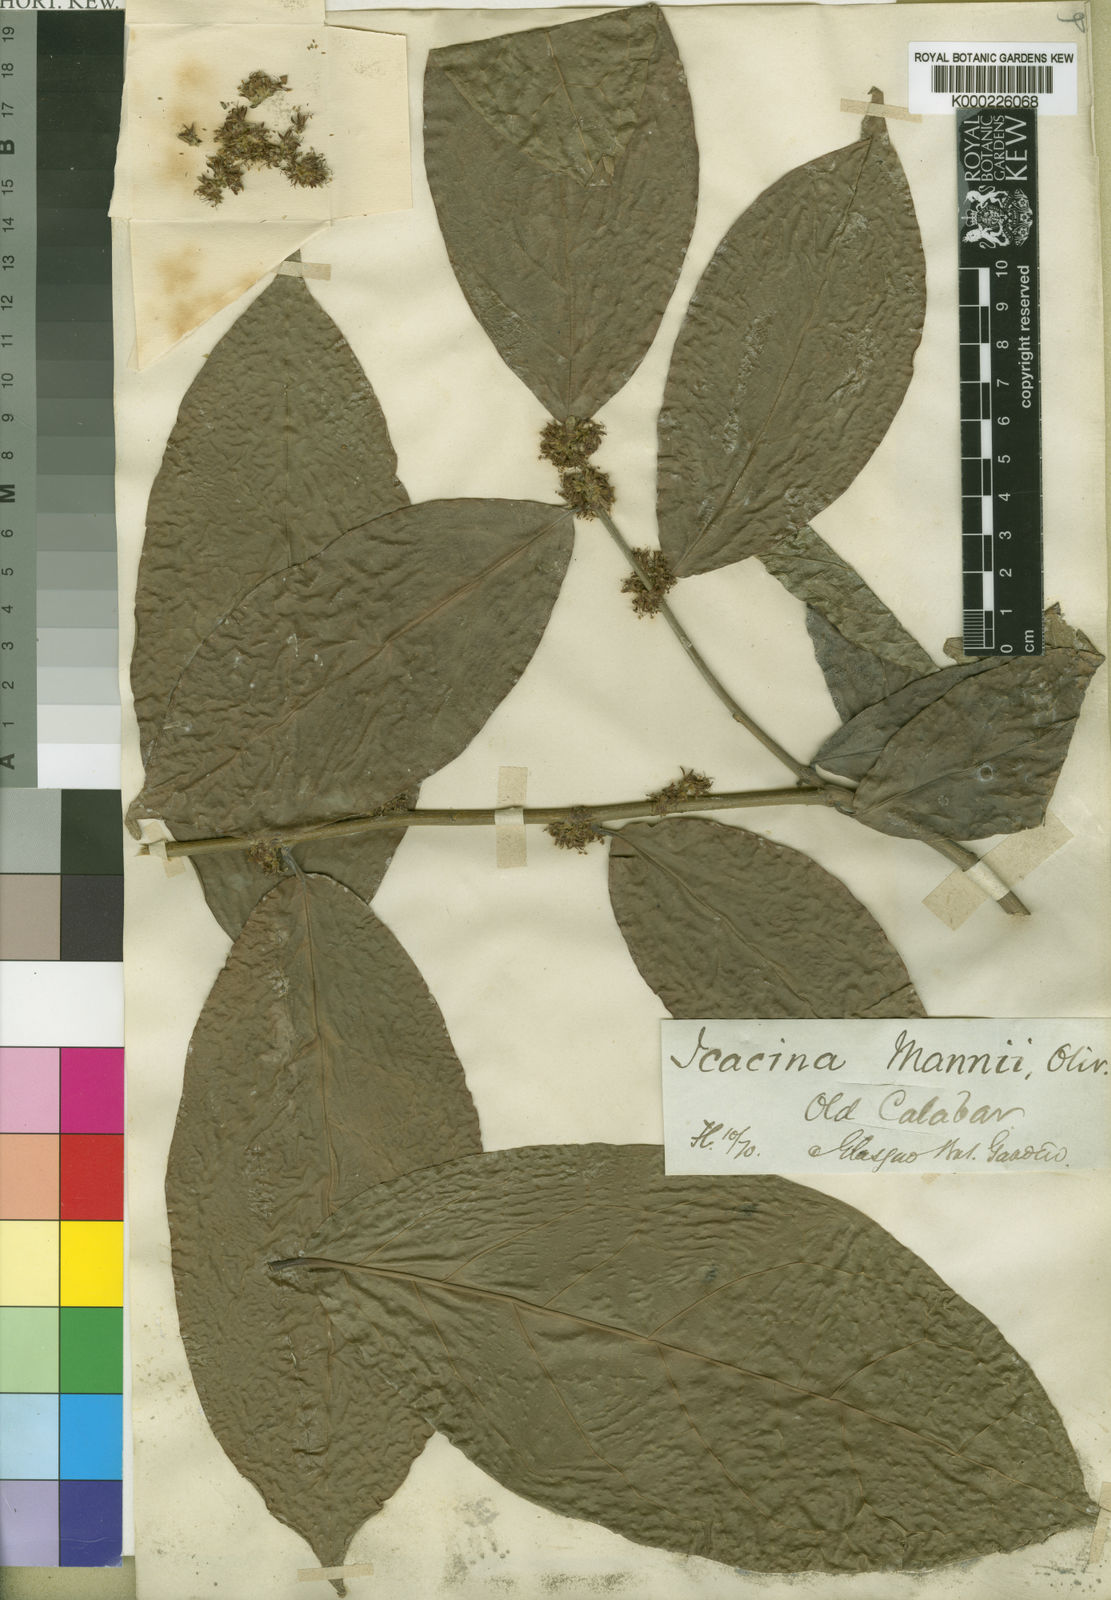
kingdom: Plantae
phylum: Tracheophyta
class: Magnoliopsida
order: Icacinales
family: Icacinaceae
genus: Icacina
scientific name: Icacina mannii
